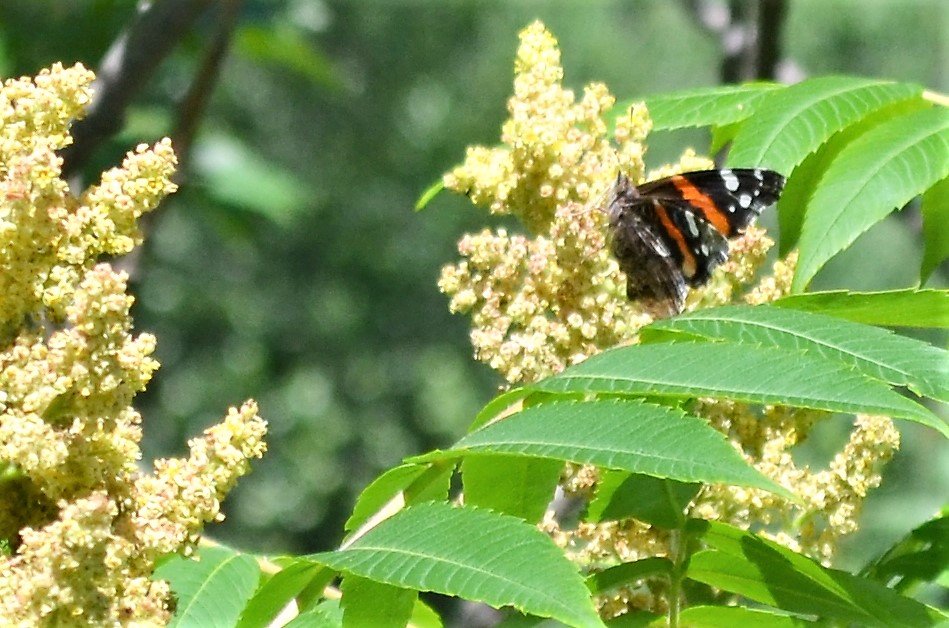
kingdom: Animalia
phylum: Arthropoda
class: Insecta
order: Lepidoptera
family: Nymphalidae
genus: Vanessa
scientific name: Vanessa atalanta
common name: Red Admiral
